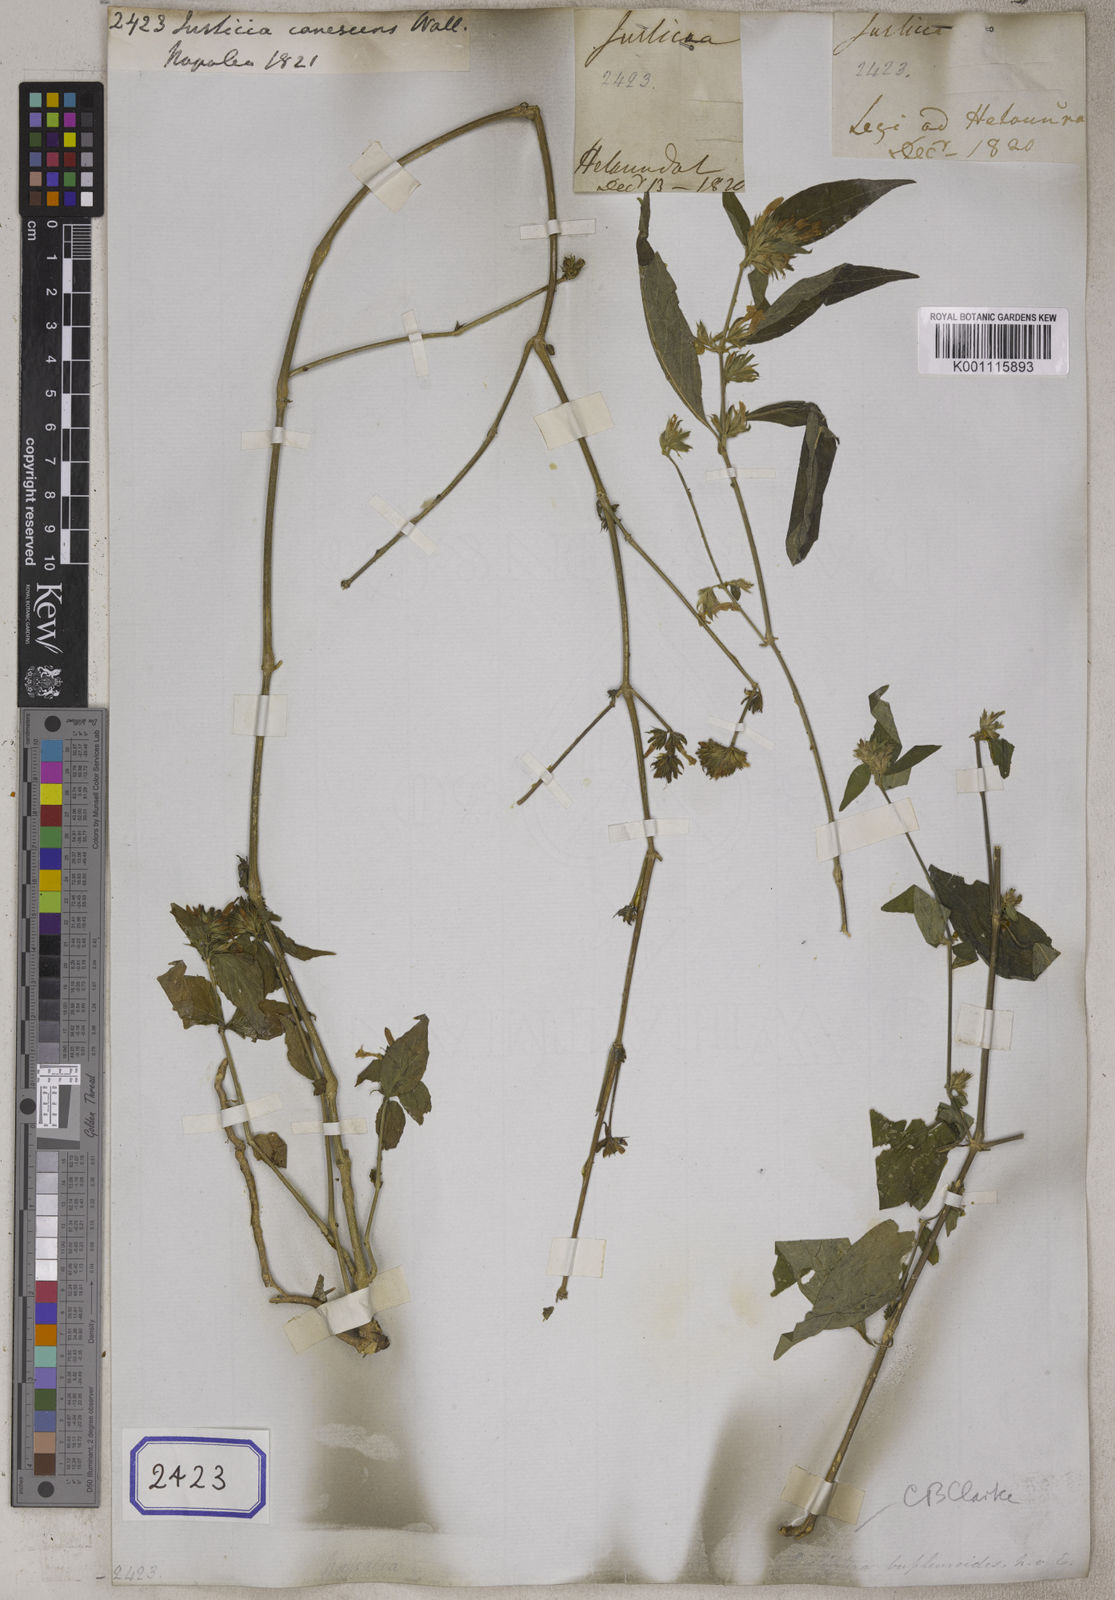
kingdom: Plantae
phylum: Tracheophyta
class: Magnoliopsida
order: Lamiales
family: Acanthaceae
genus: Dicliptera
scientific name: Dicliptera chinensis
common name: Chinese foldwing
